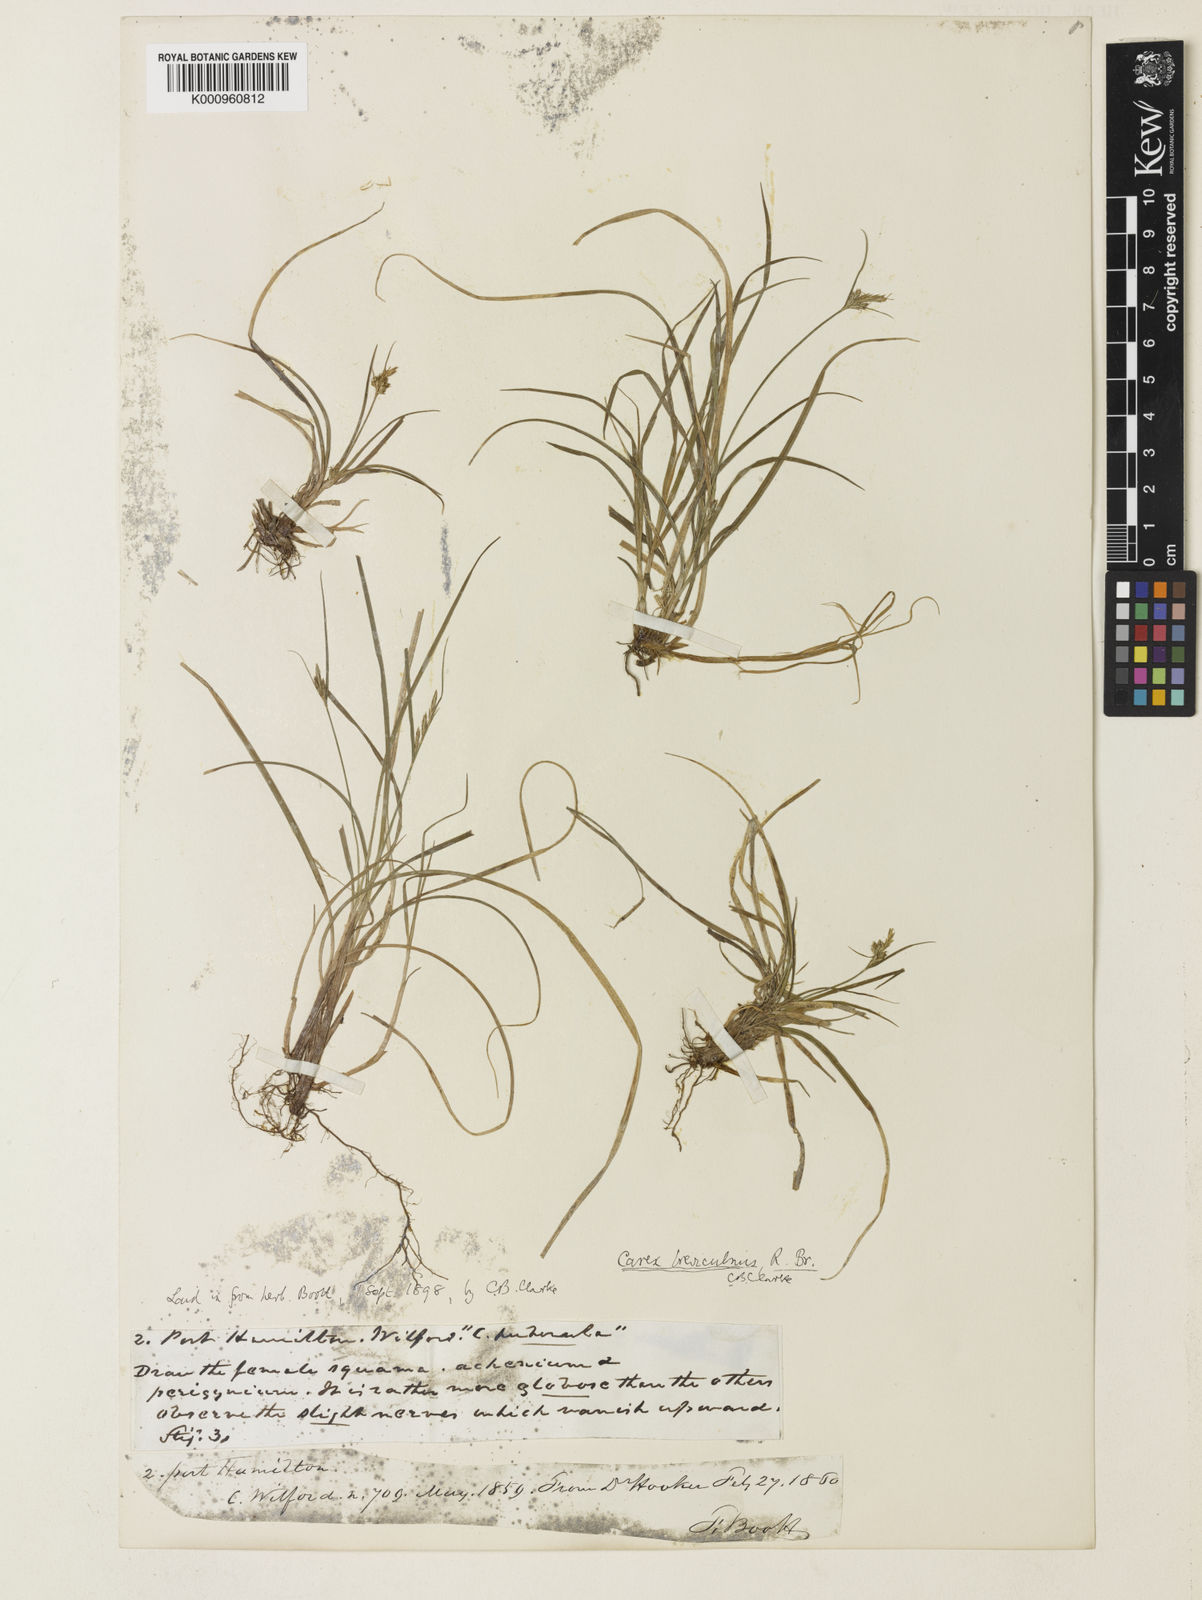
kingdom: Plantae
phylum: Tracheophyta
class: Liliopsida
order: Poales
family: Cyperaceae
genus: Carex
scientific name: Carex breviculmis
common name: Asian shortstem sedge
